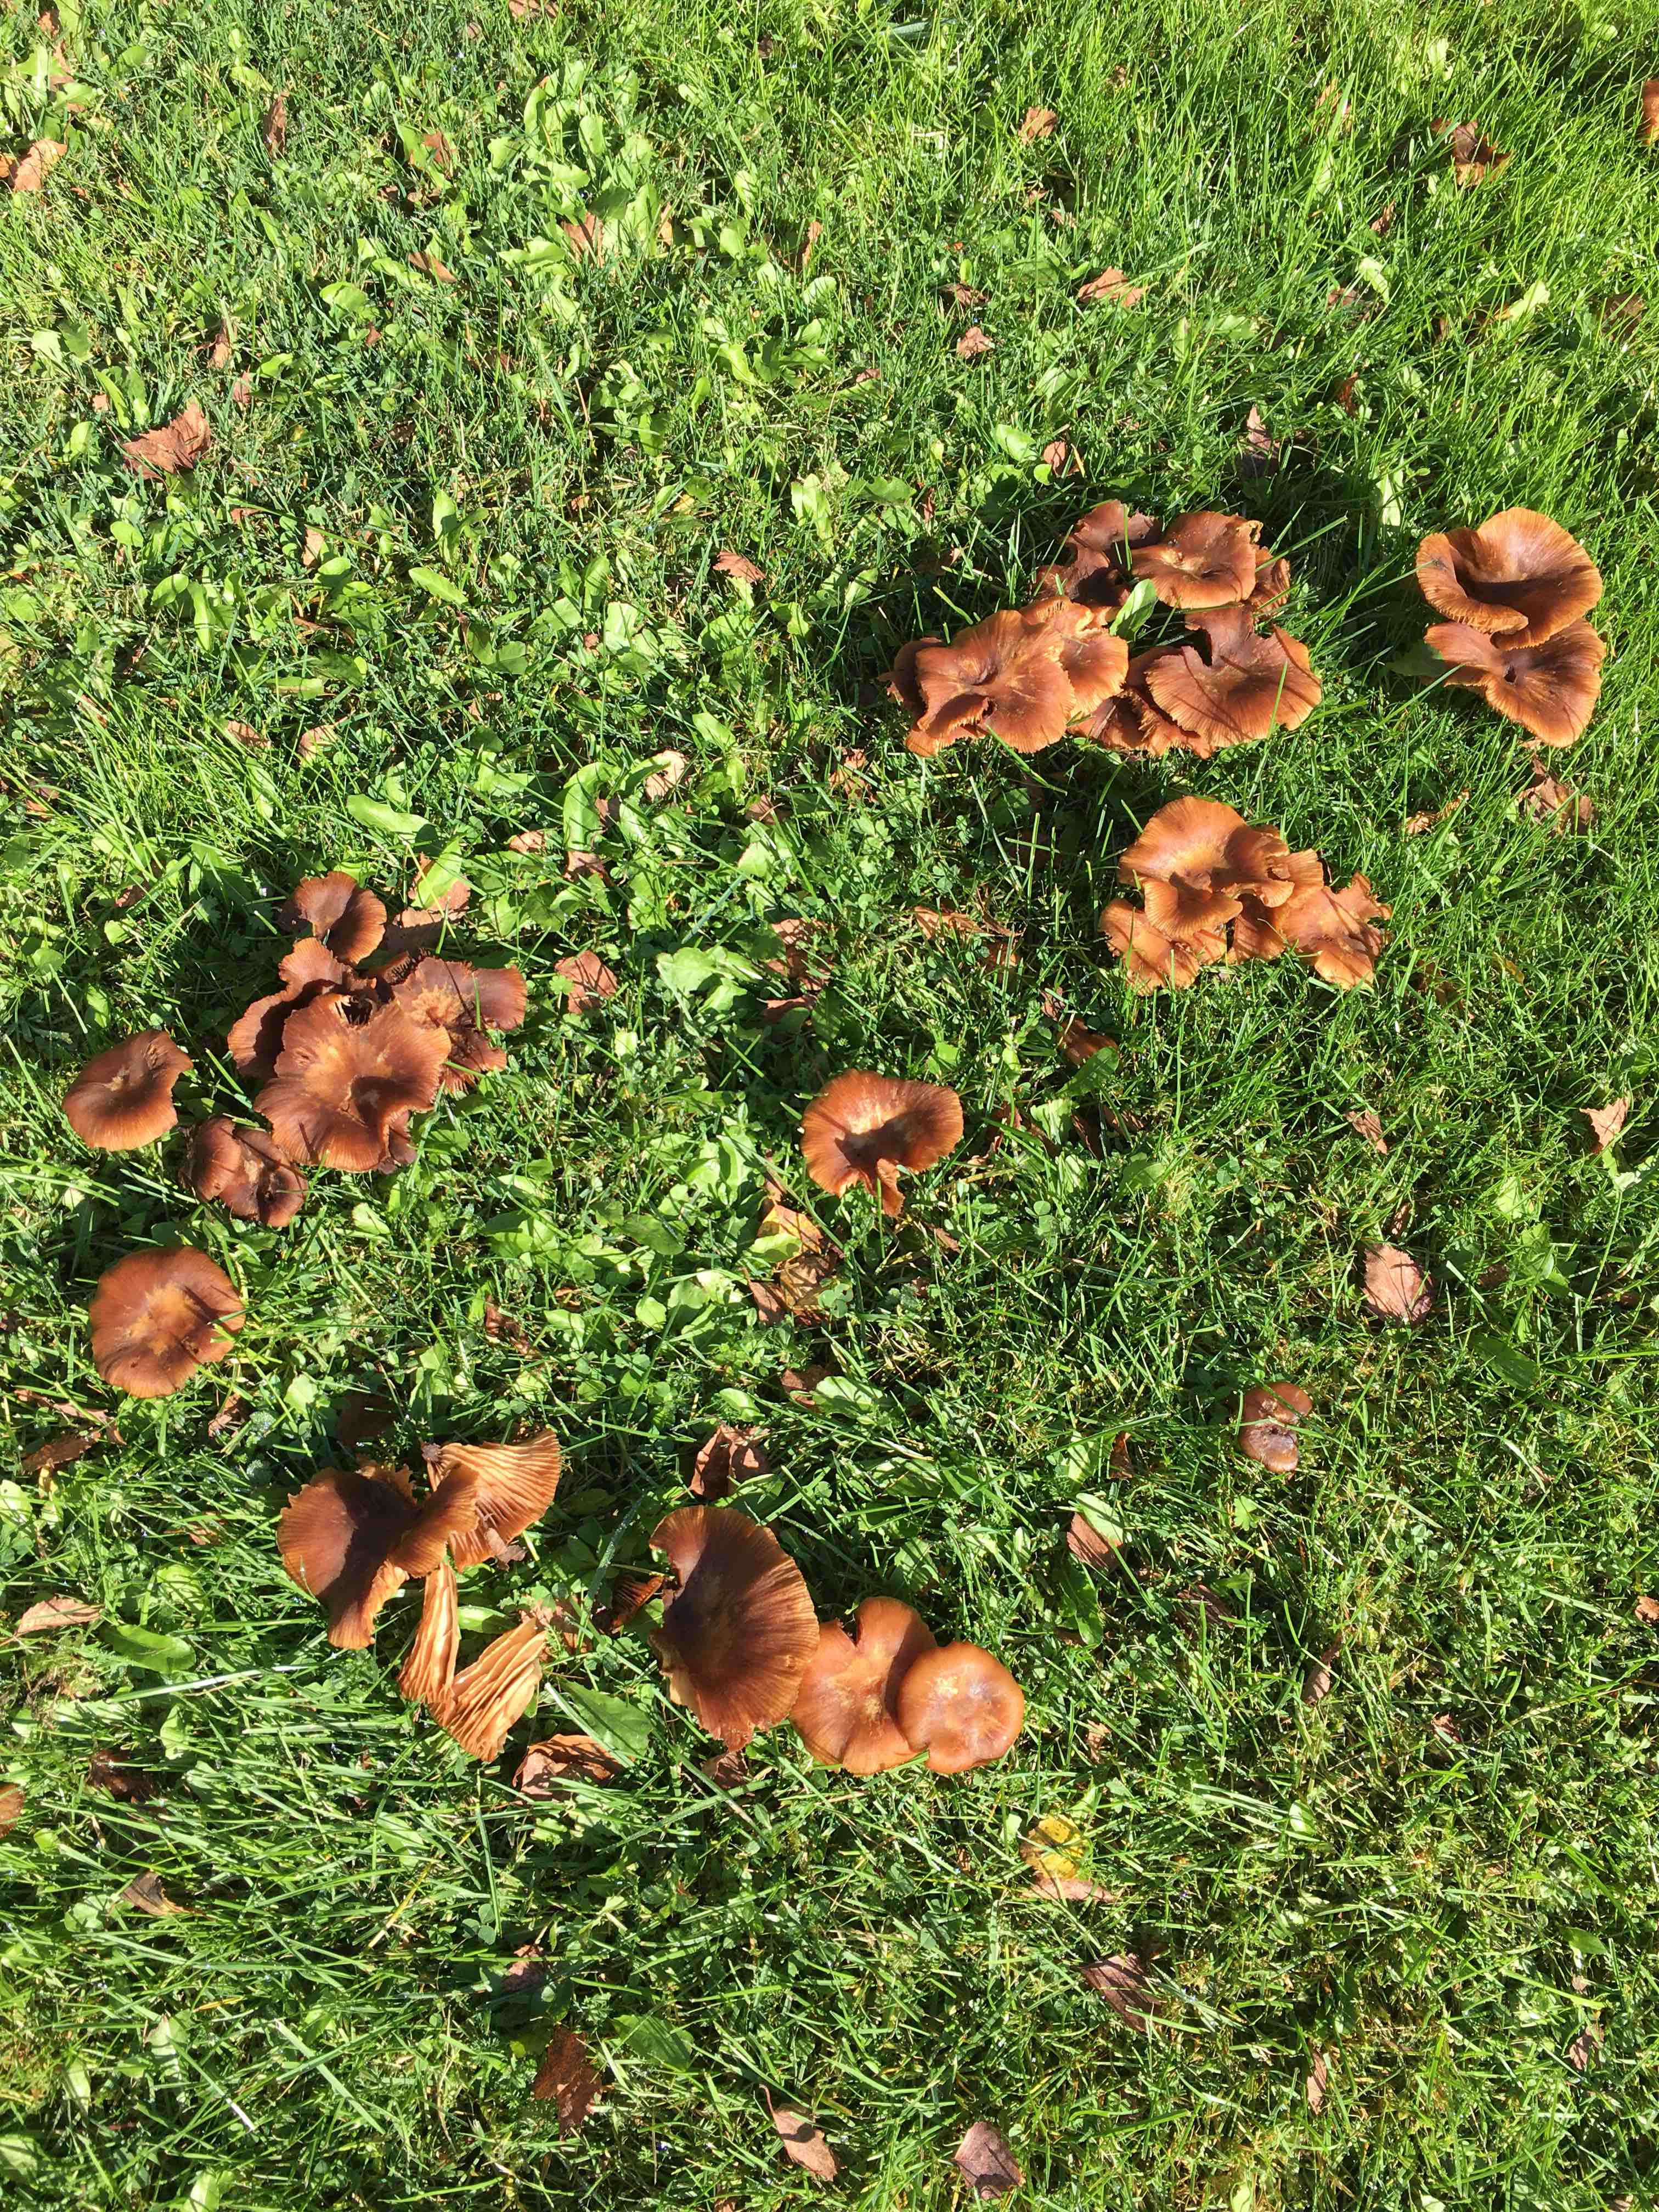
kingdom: Fungi
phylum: Basidiomycota
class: Agaricomycetes
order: Agaricales
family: Hydnangiaceae
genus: Laccaria
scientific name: Laccaria
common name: ametysthat
